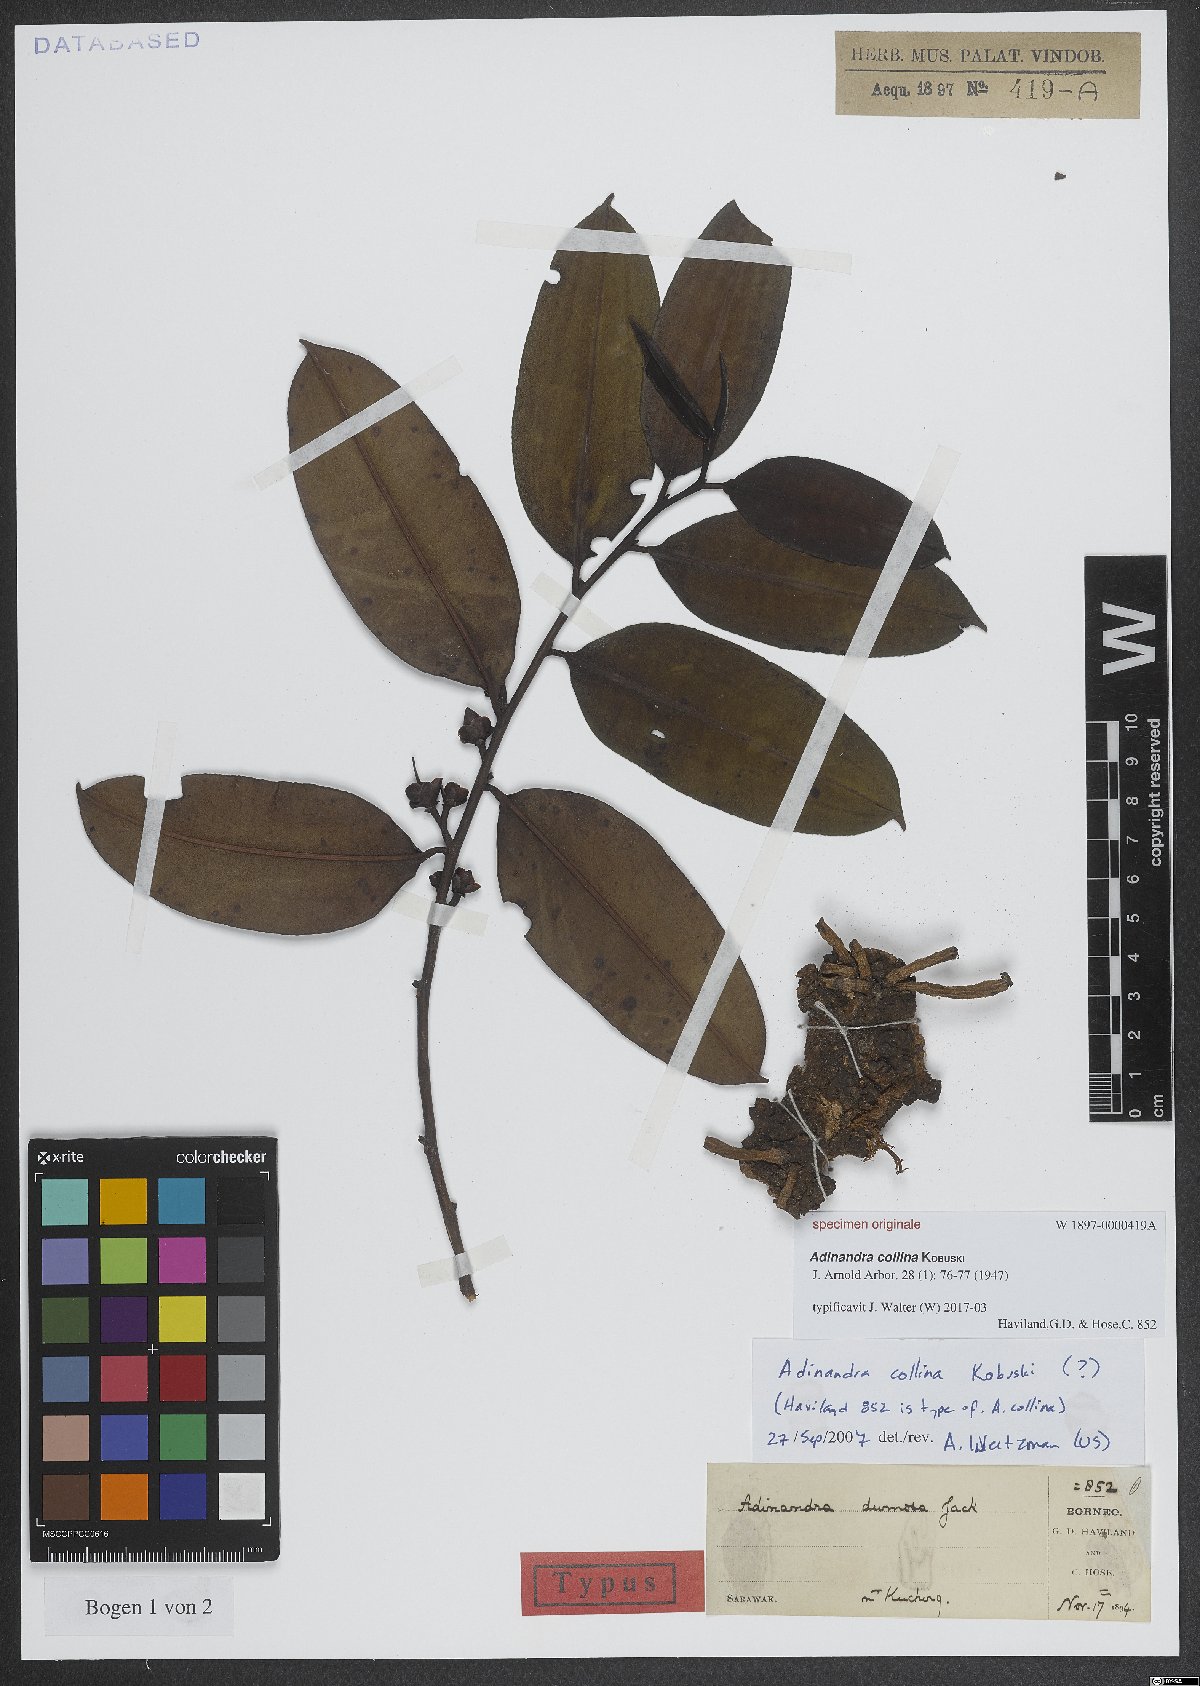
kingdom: Plantae
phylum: Tracheophyta
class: Magnoliopsida
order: Ericales
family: Pentaphylacaceae
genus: Adinandra
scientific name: Adinandra collina
